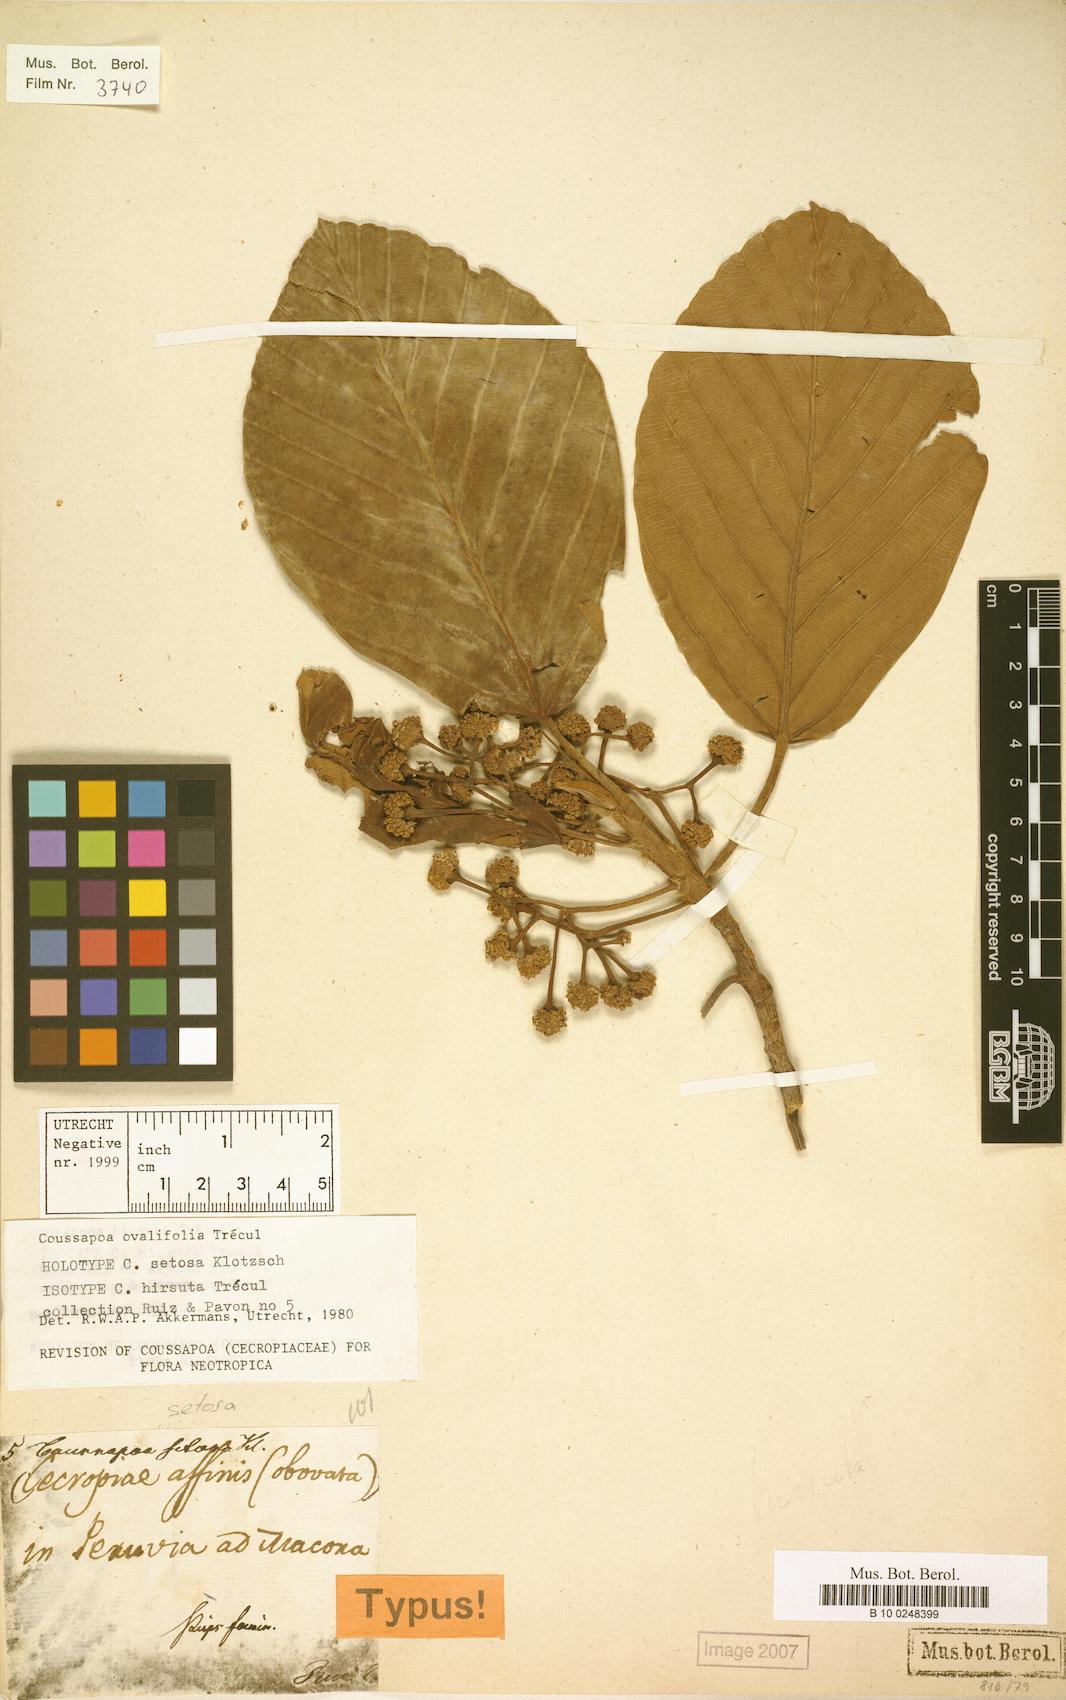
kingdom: Plantae
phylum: Tracheophyta
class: Magnoliopsida
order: Rosales
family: Urticaceae
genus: Coussapoa
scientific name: Coussapoa ovalifolia
